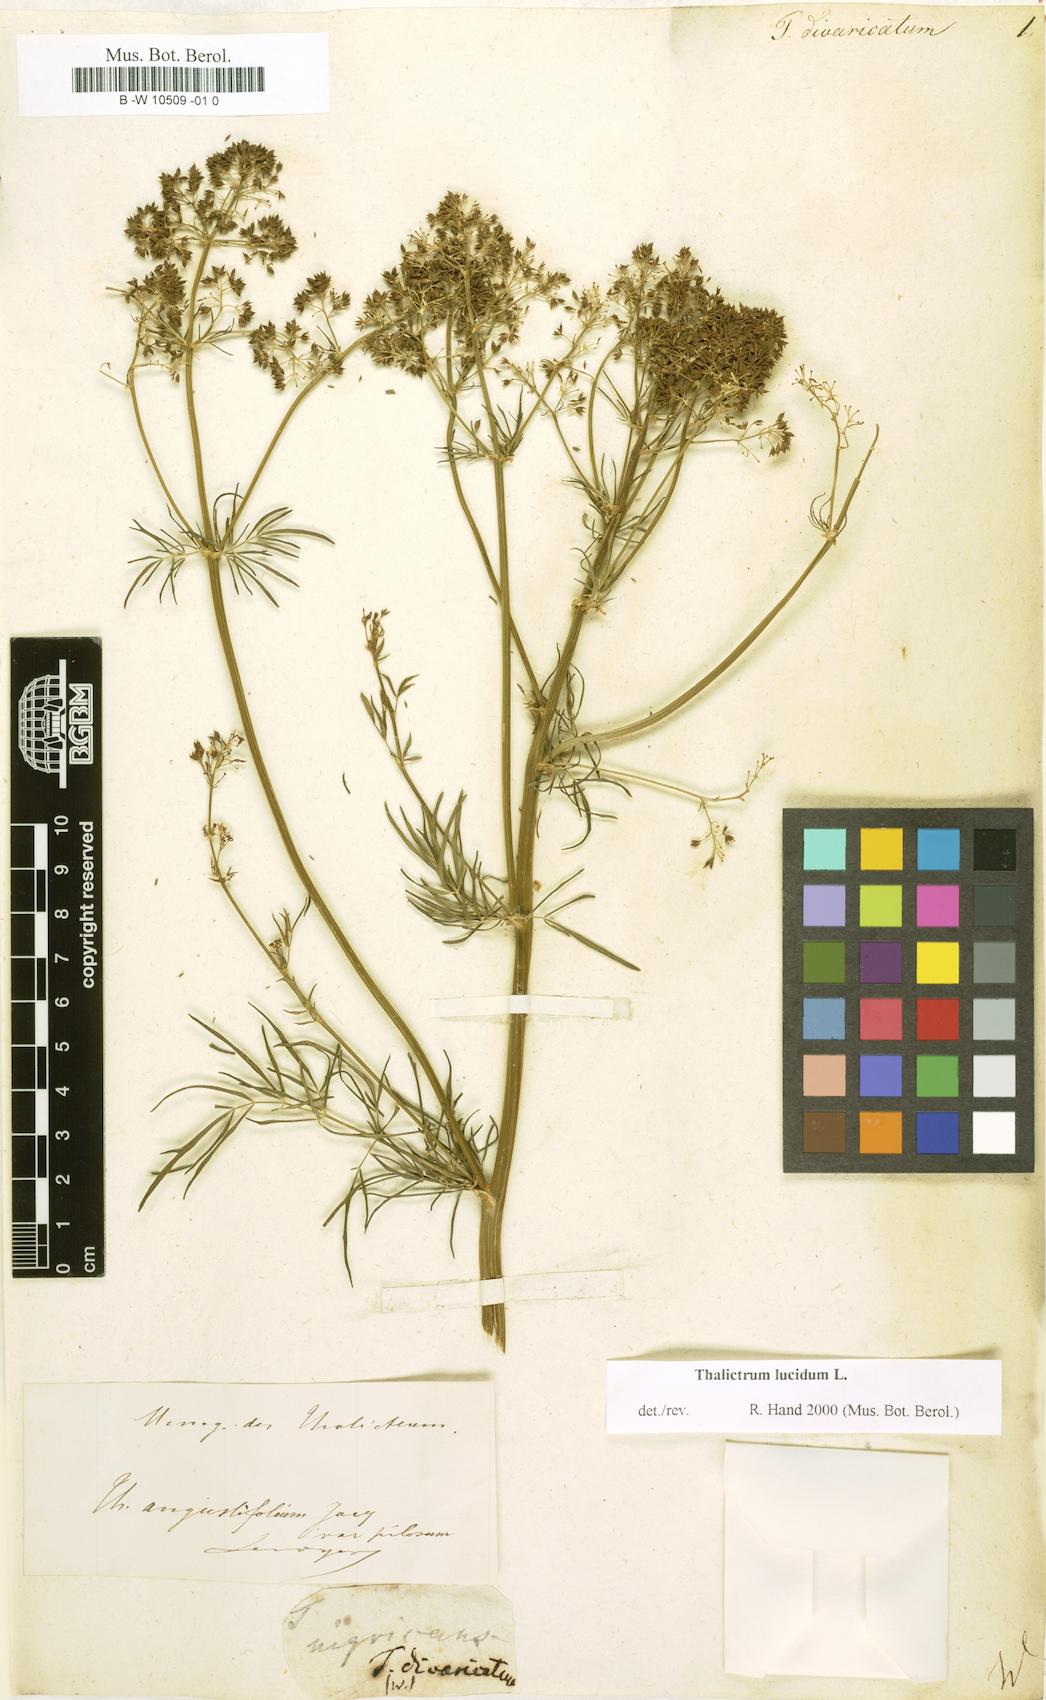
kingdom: Plantae
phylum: Tracheophyta
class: Magnoliopsida
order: Ranunculales
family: Ranunculaceae
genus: Thalictrum
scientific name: Thalictrum
